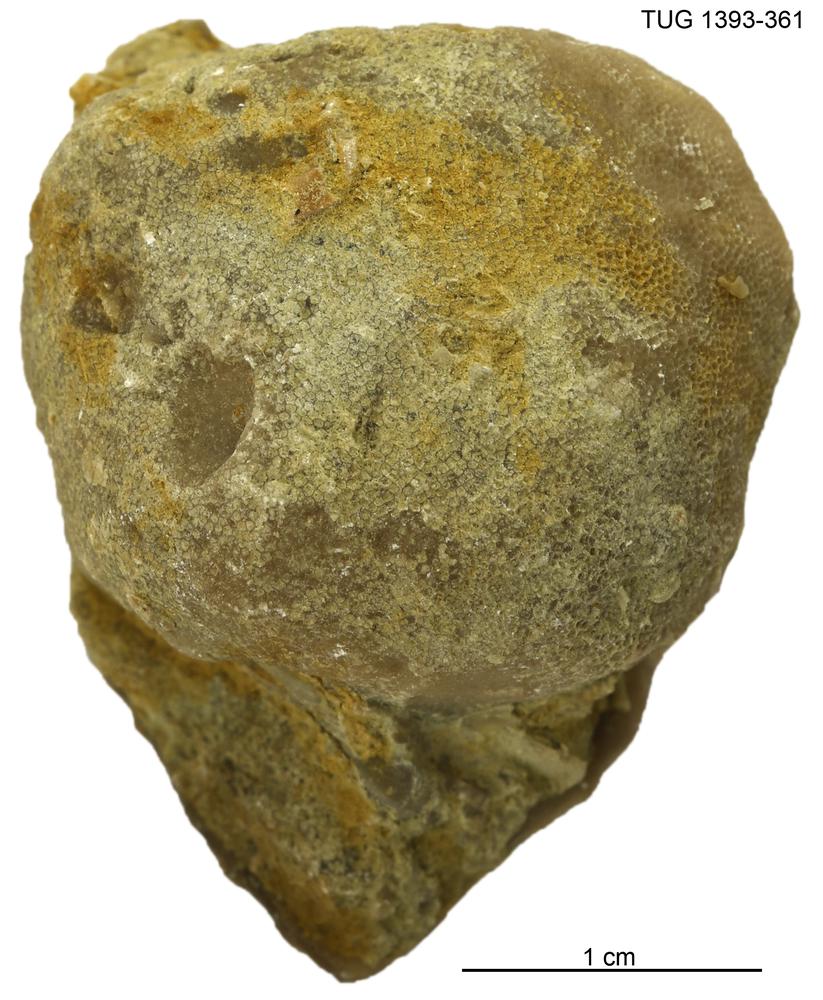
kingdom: Animalia
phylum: Bryozoa
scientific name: Bryozoa
